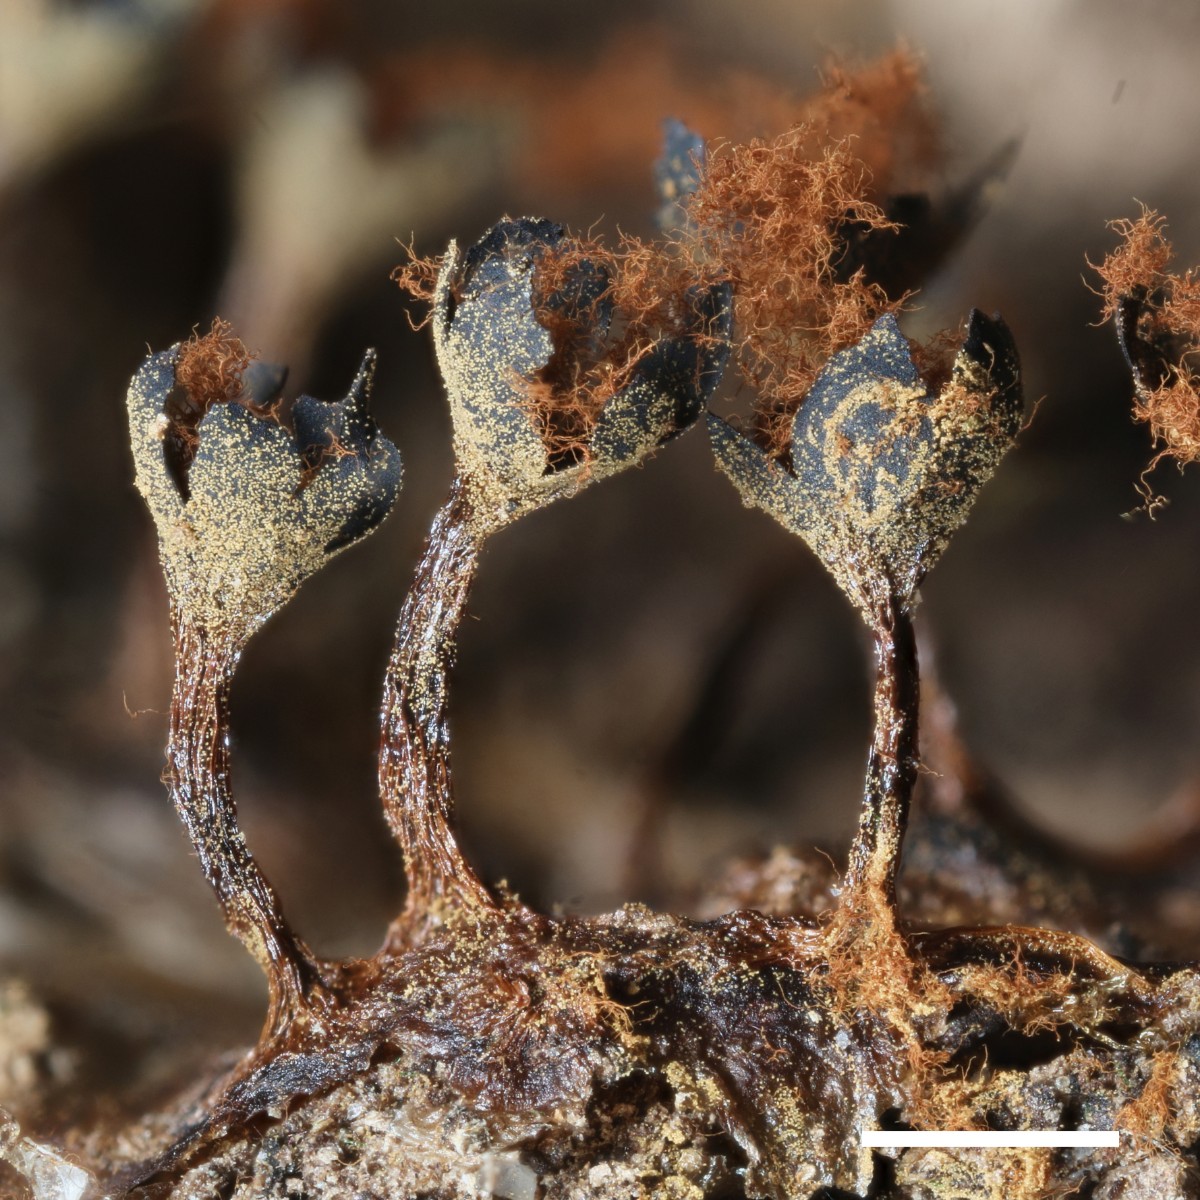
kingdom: Protozoa
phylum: Mycetozoa
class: Myxomycetes
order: Trichiales
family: Trichiaceae
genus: Metatrichia
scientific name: Metatrichia floriformis
